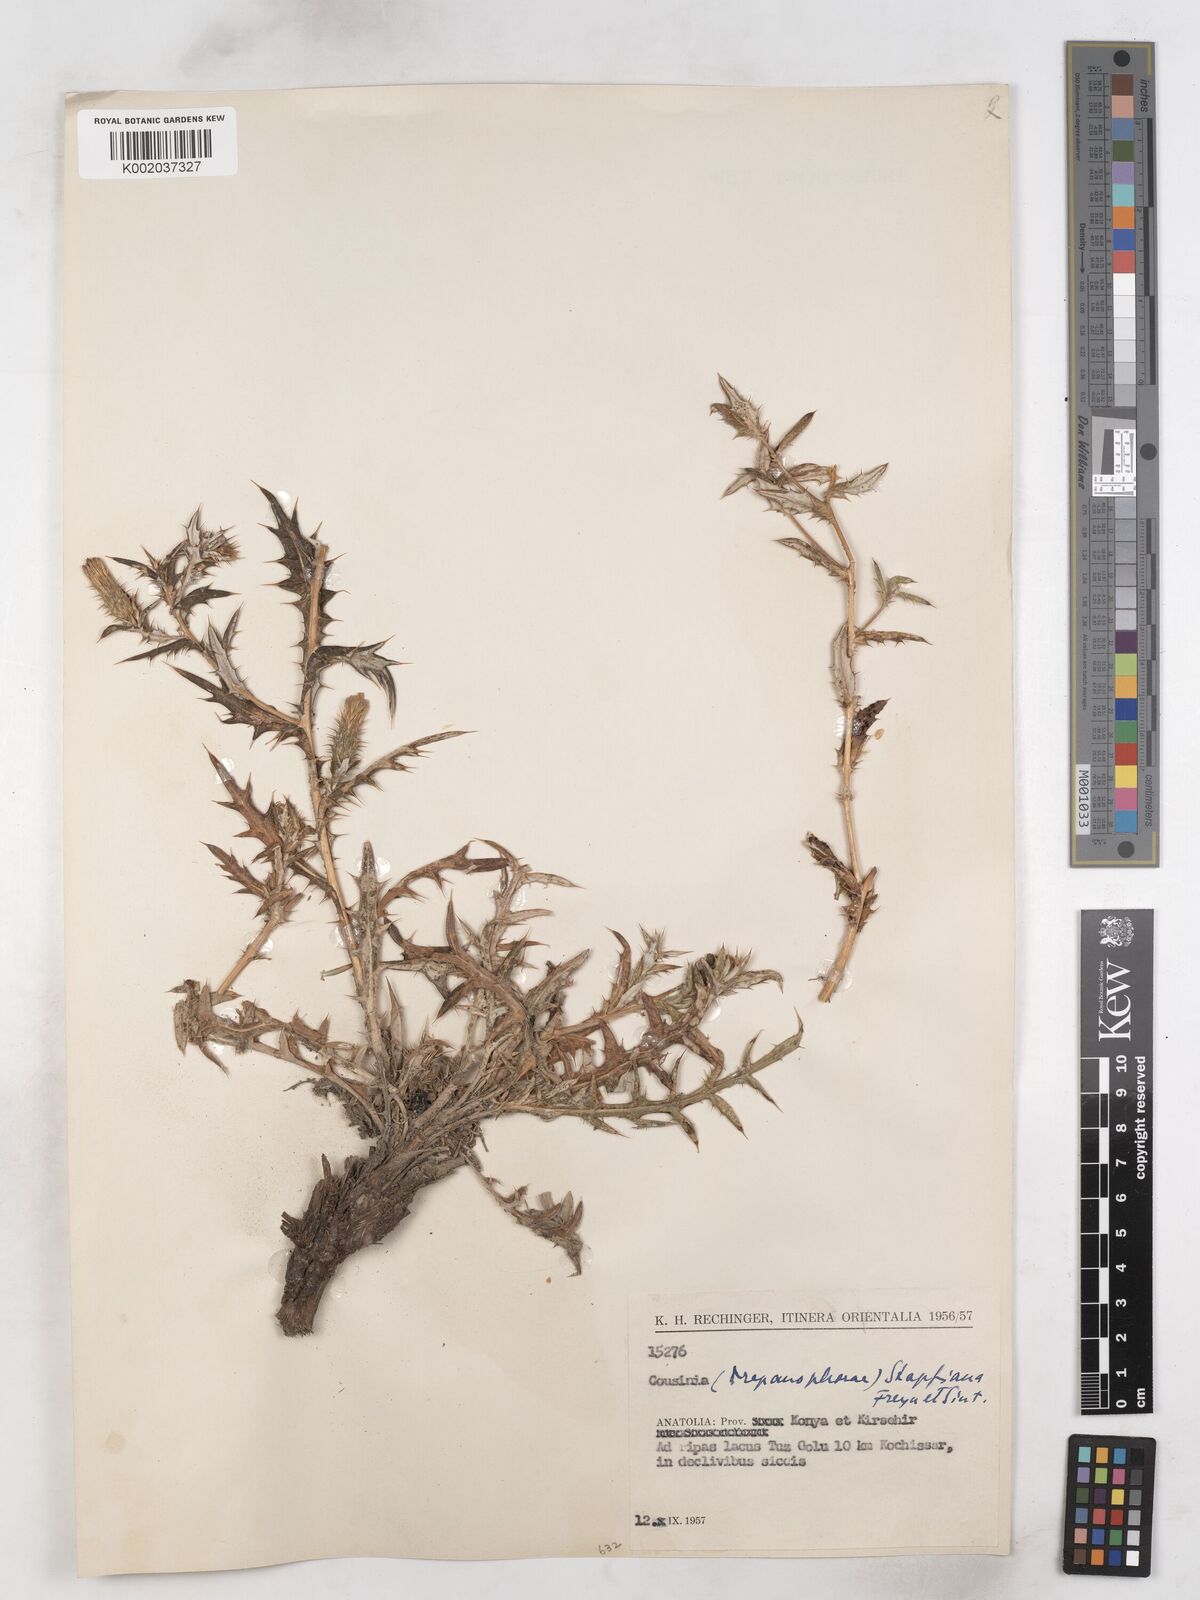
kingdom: Plantae
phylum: Tracheophyta
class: Magnoliopsida
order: Asterales
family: Asteraceae
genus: Cousinia
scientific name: Cousinia stapfiana
